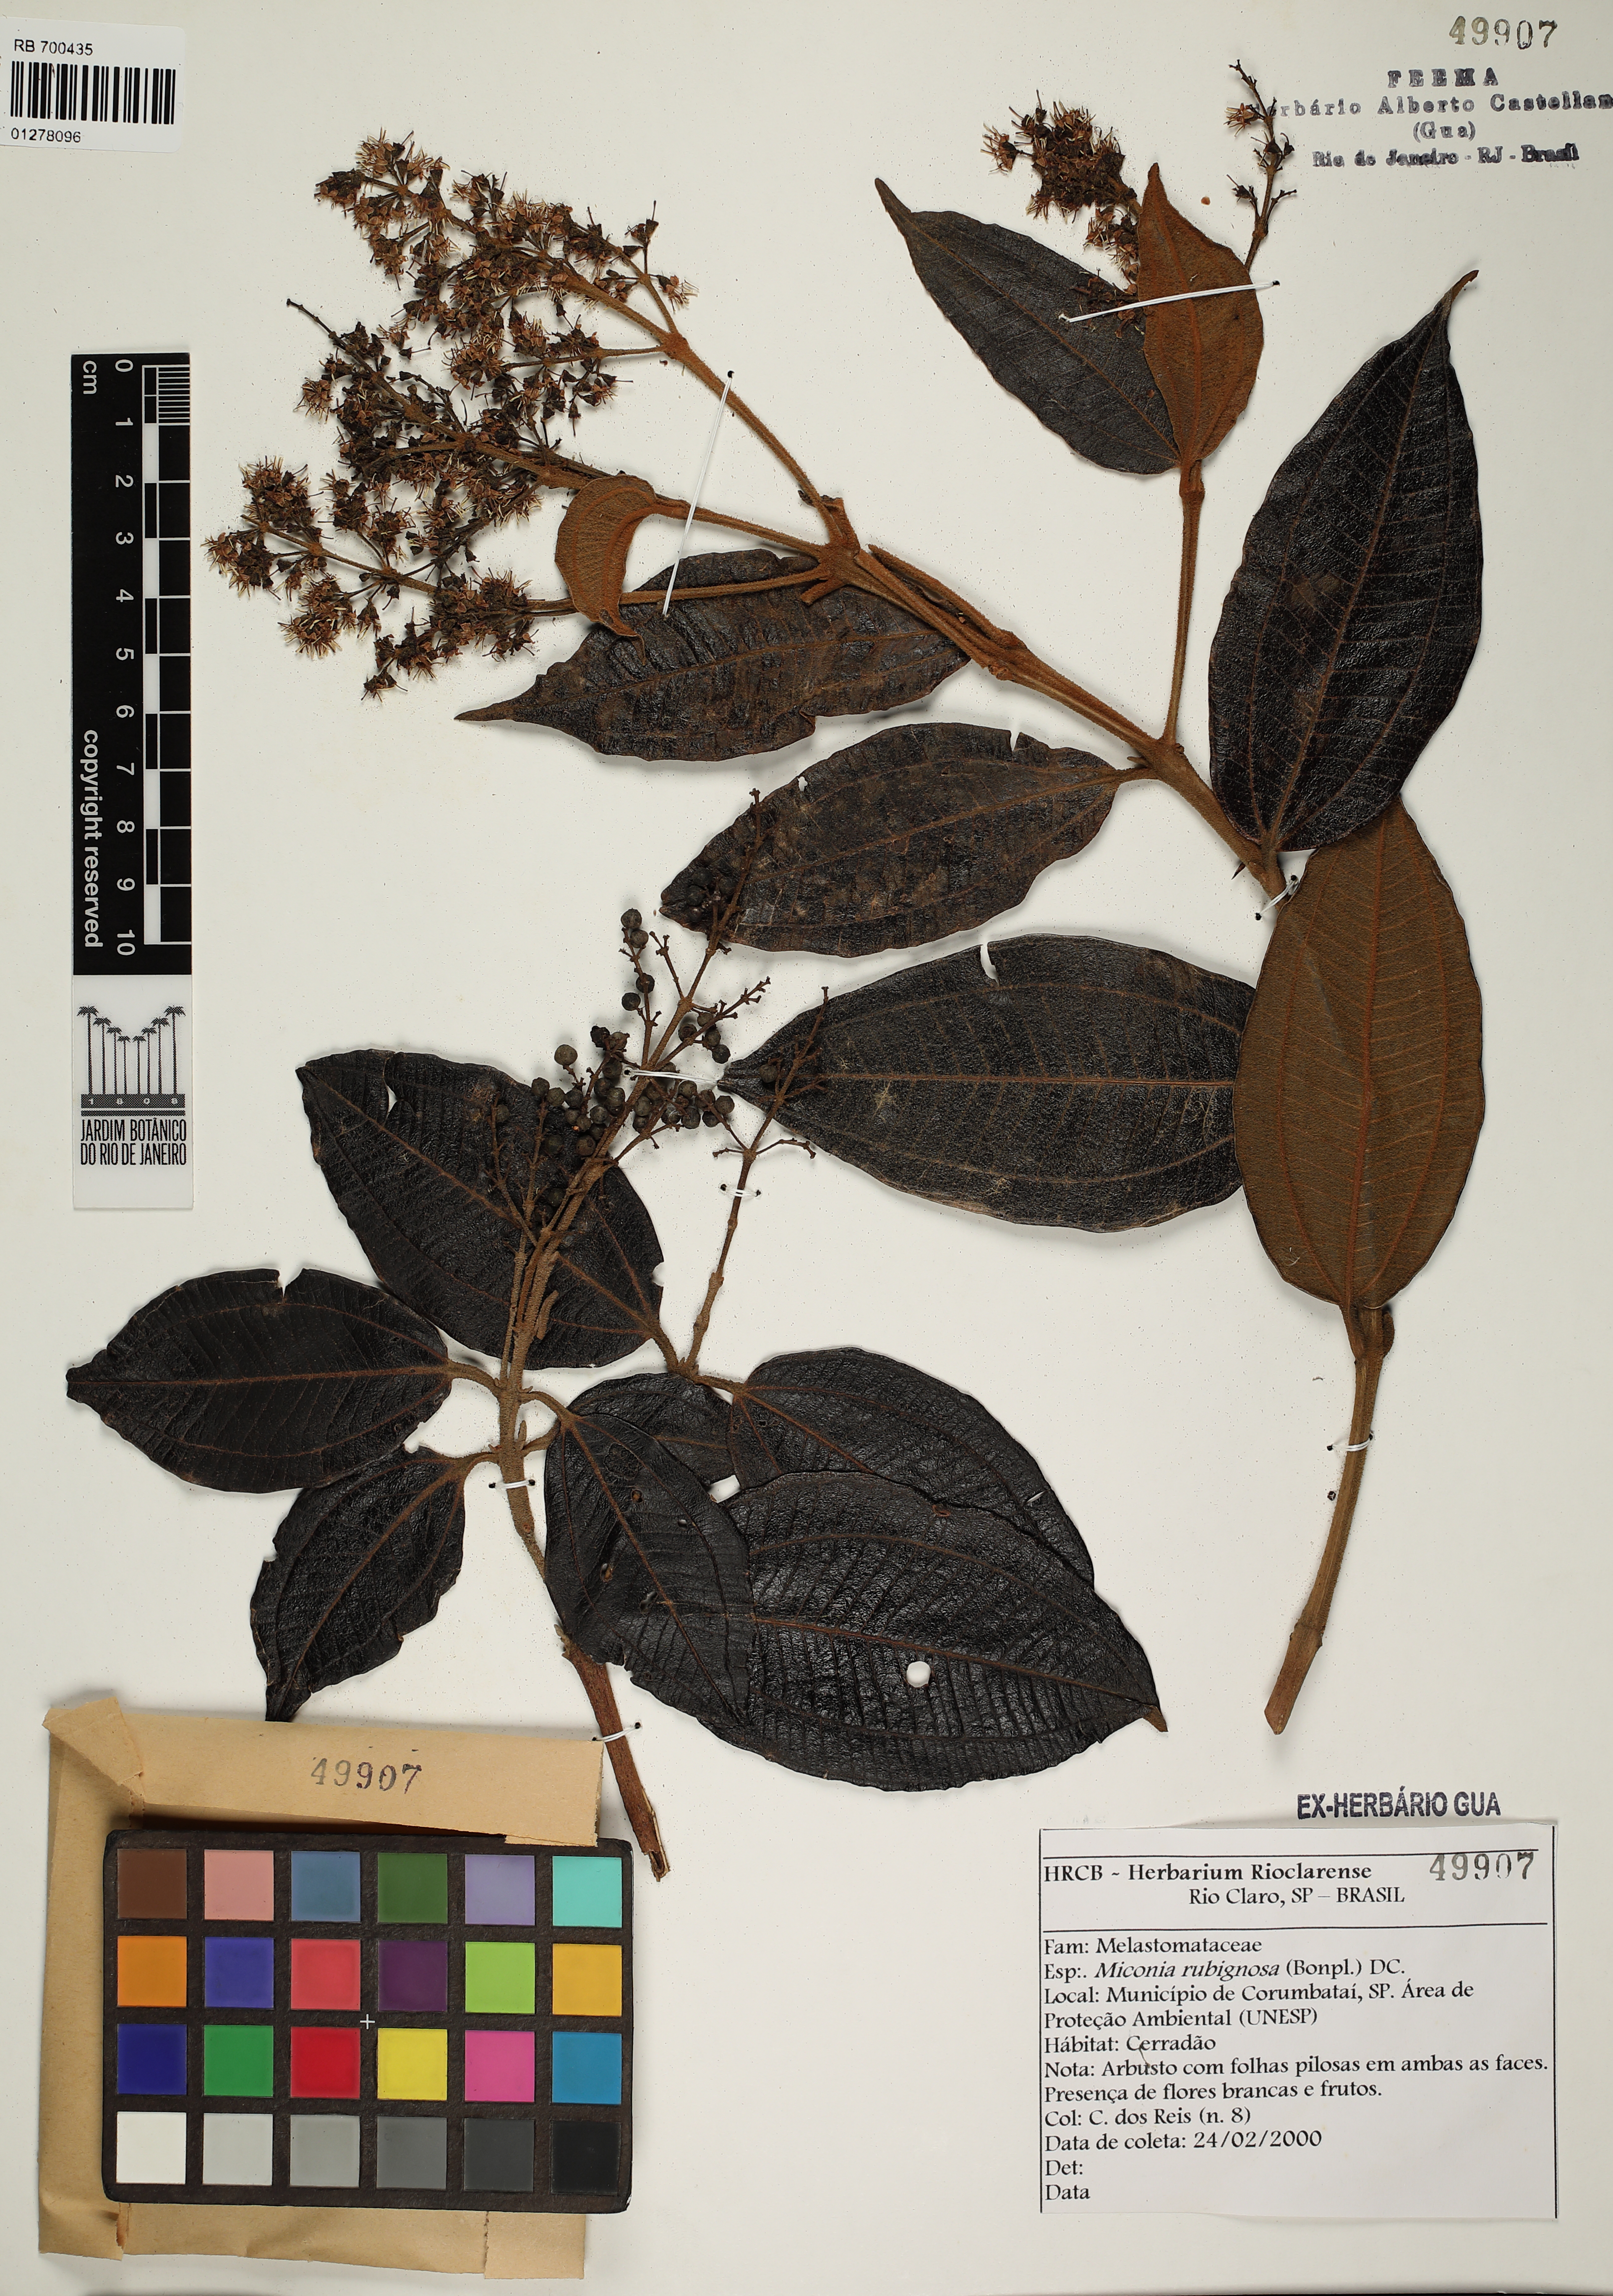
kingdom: Plantae
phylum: Tracheophyta
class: Magnoliopsida
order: Myrtales
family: Melastomataceae
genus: Miconia
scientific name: Miconia rubiginosa
